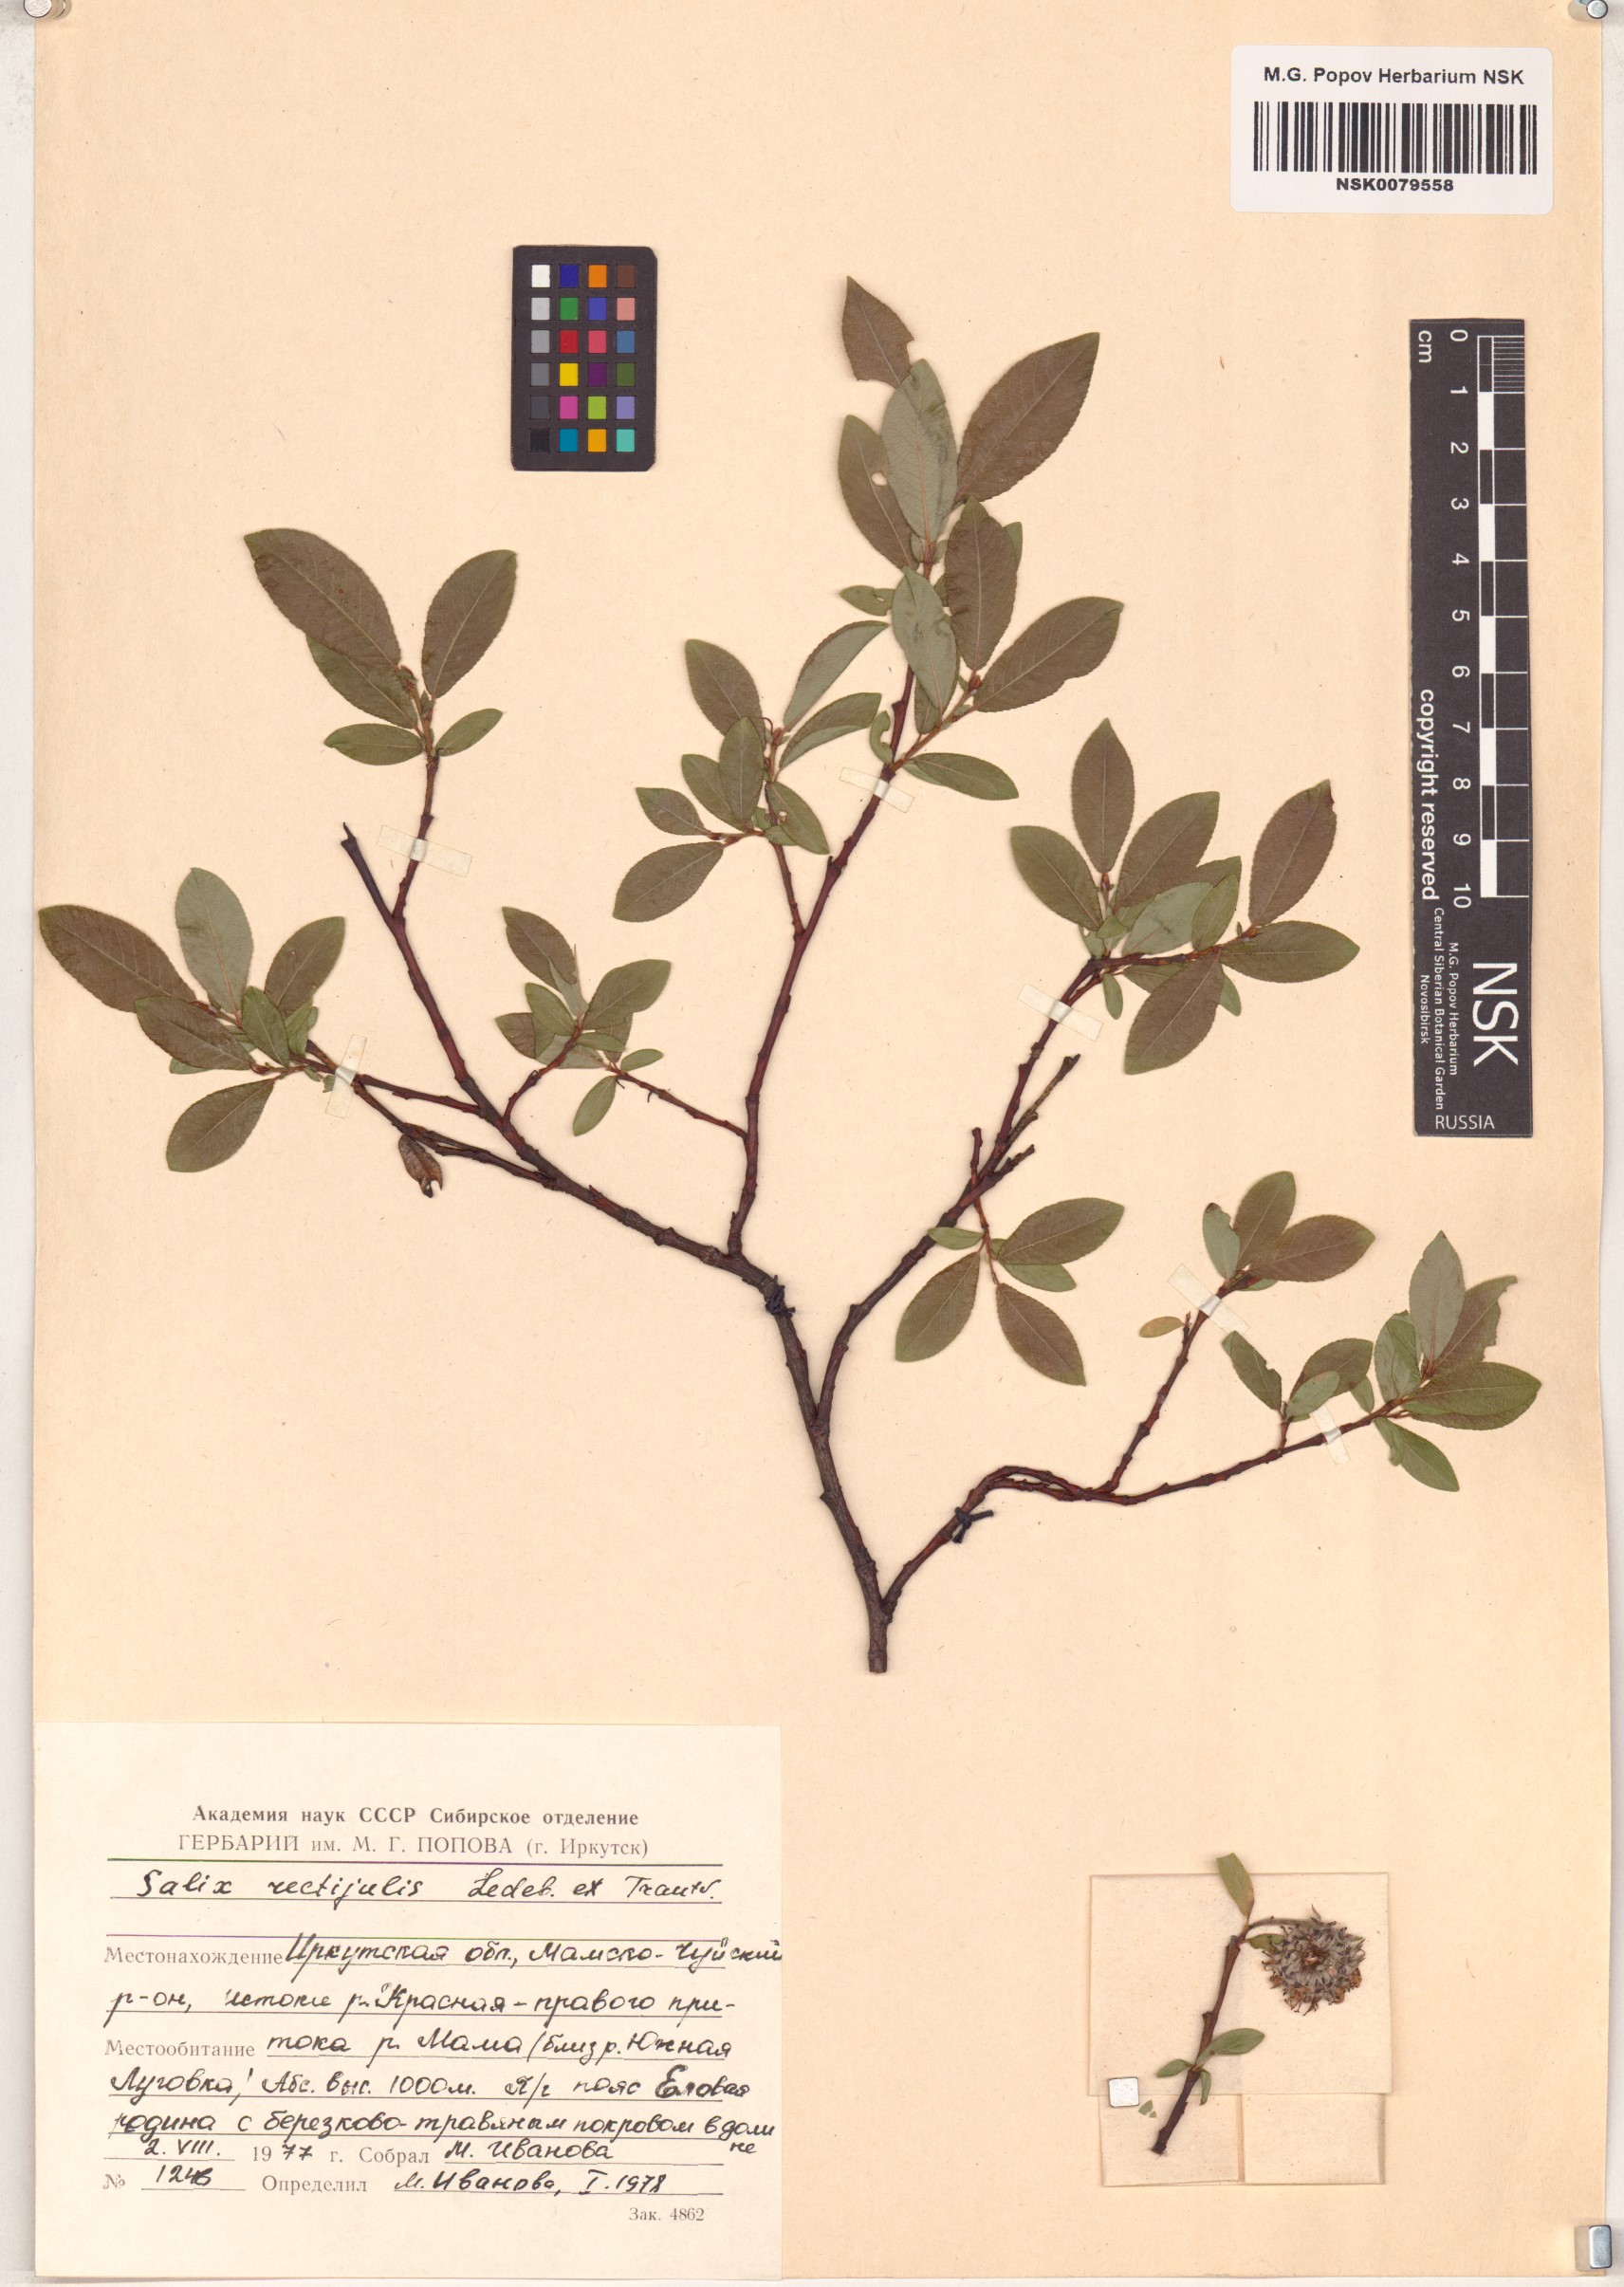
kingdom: Plantae
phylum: Tracheophyta
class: Magnoliopsida
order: Malpighiales
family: Salicaceae
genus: Salix
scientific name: Salix rectijulis
